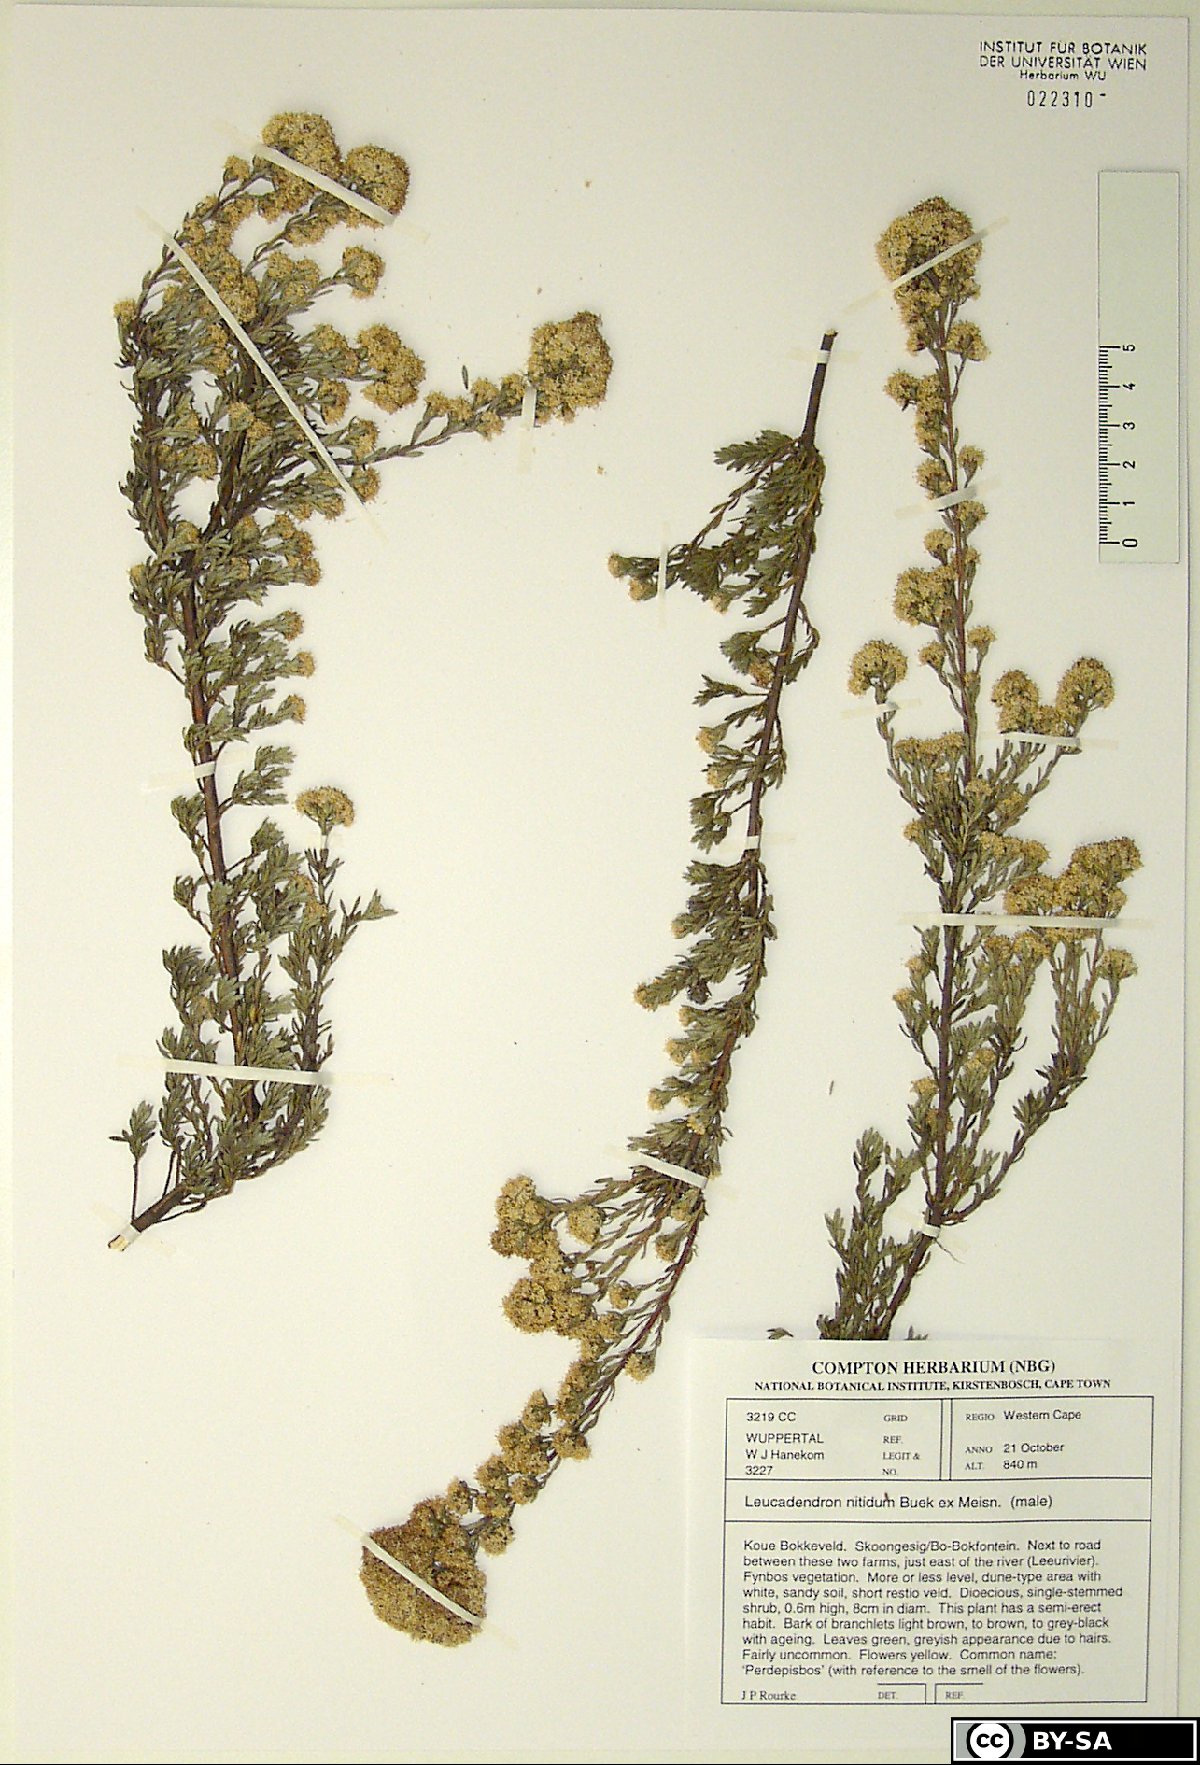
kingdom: Plantae
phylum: Tracheophyta
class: Magnoliopsida
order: Proteales
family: Proteaceae
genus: Leucadendron
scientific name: Leucadendron nitidum
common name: Bokkeveld conebush
